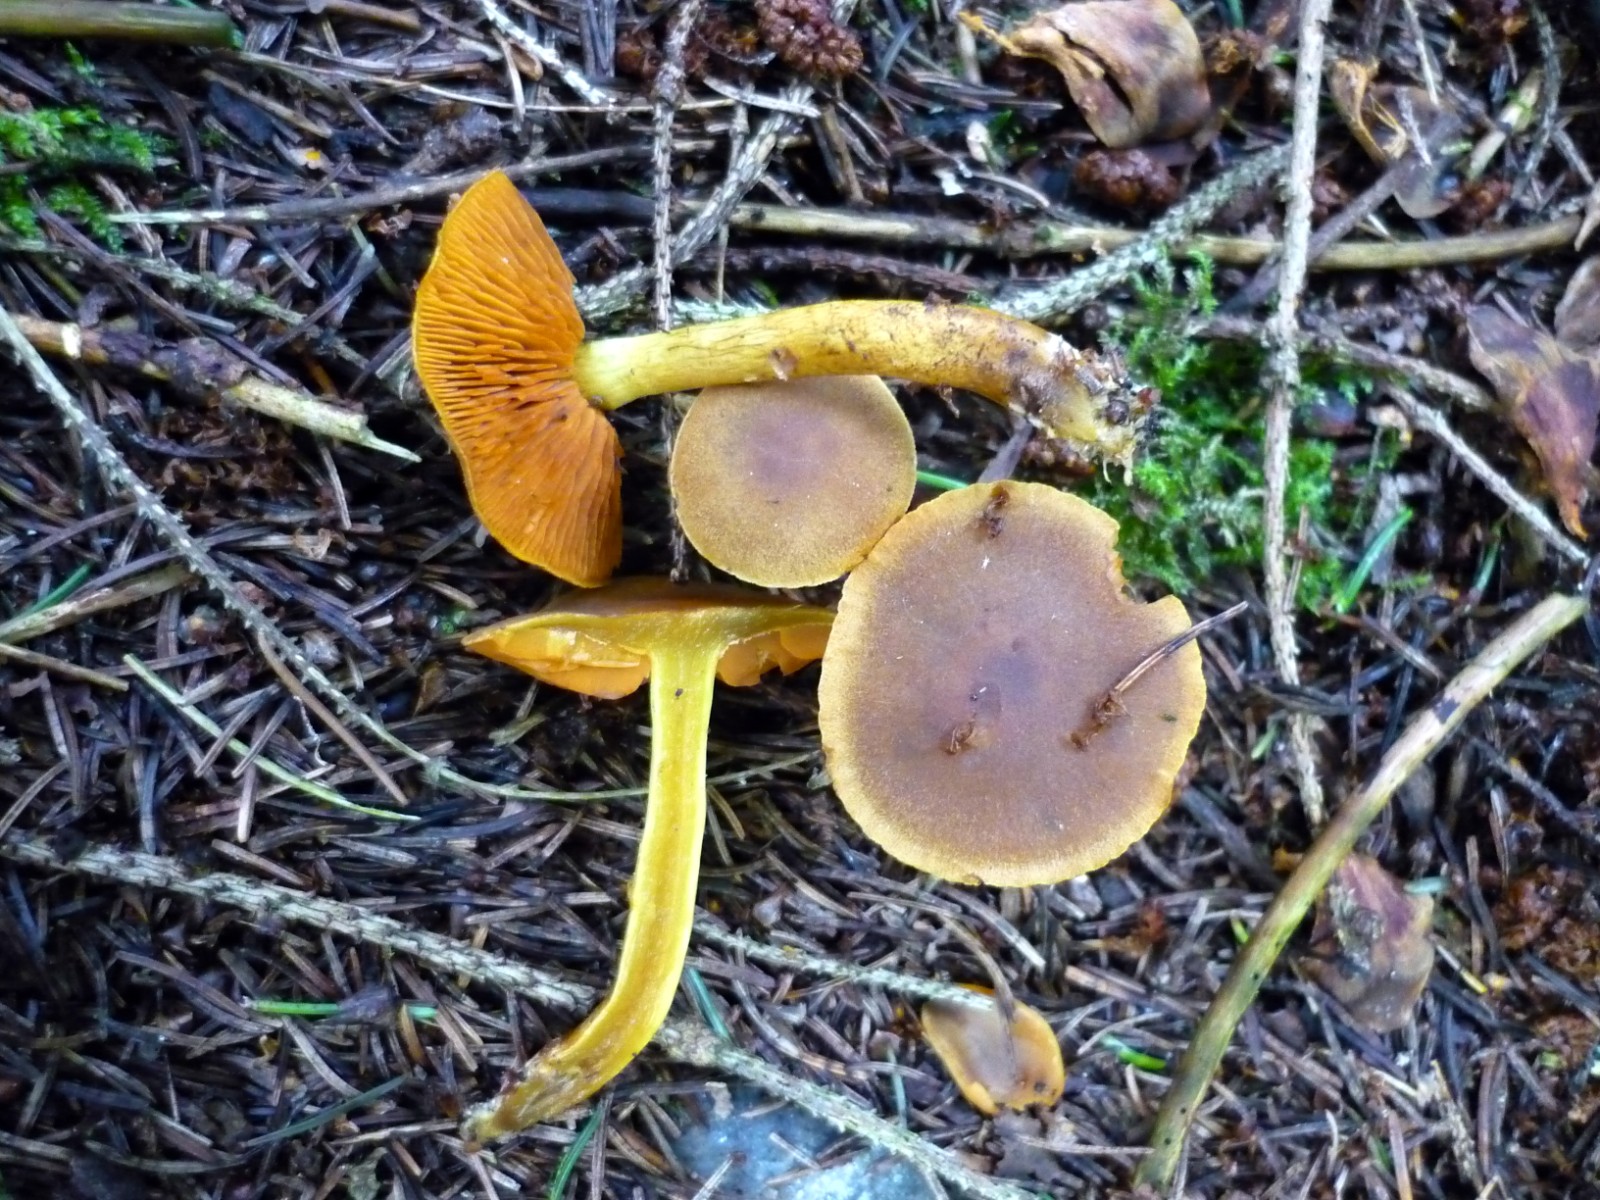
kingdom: Fungi
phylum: Basidiomycota
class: Agaricomycetes
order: Agaricales
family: Cortinariaceae
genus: Cortinarius
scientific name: Cortinarius malicorius
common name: grønkødet slørhat
